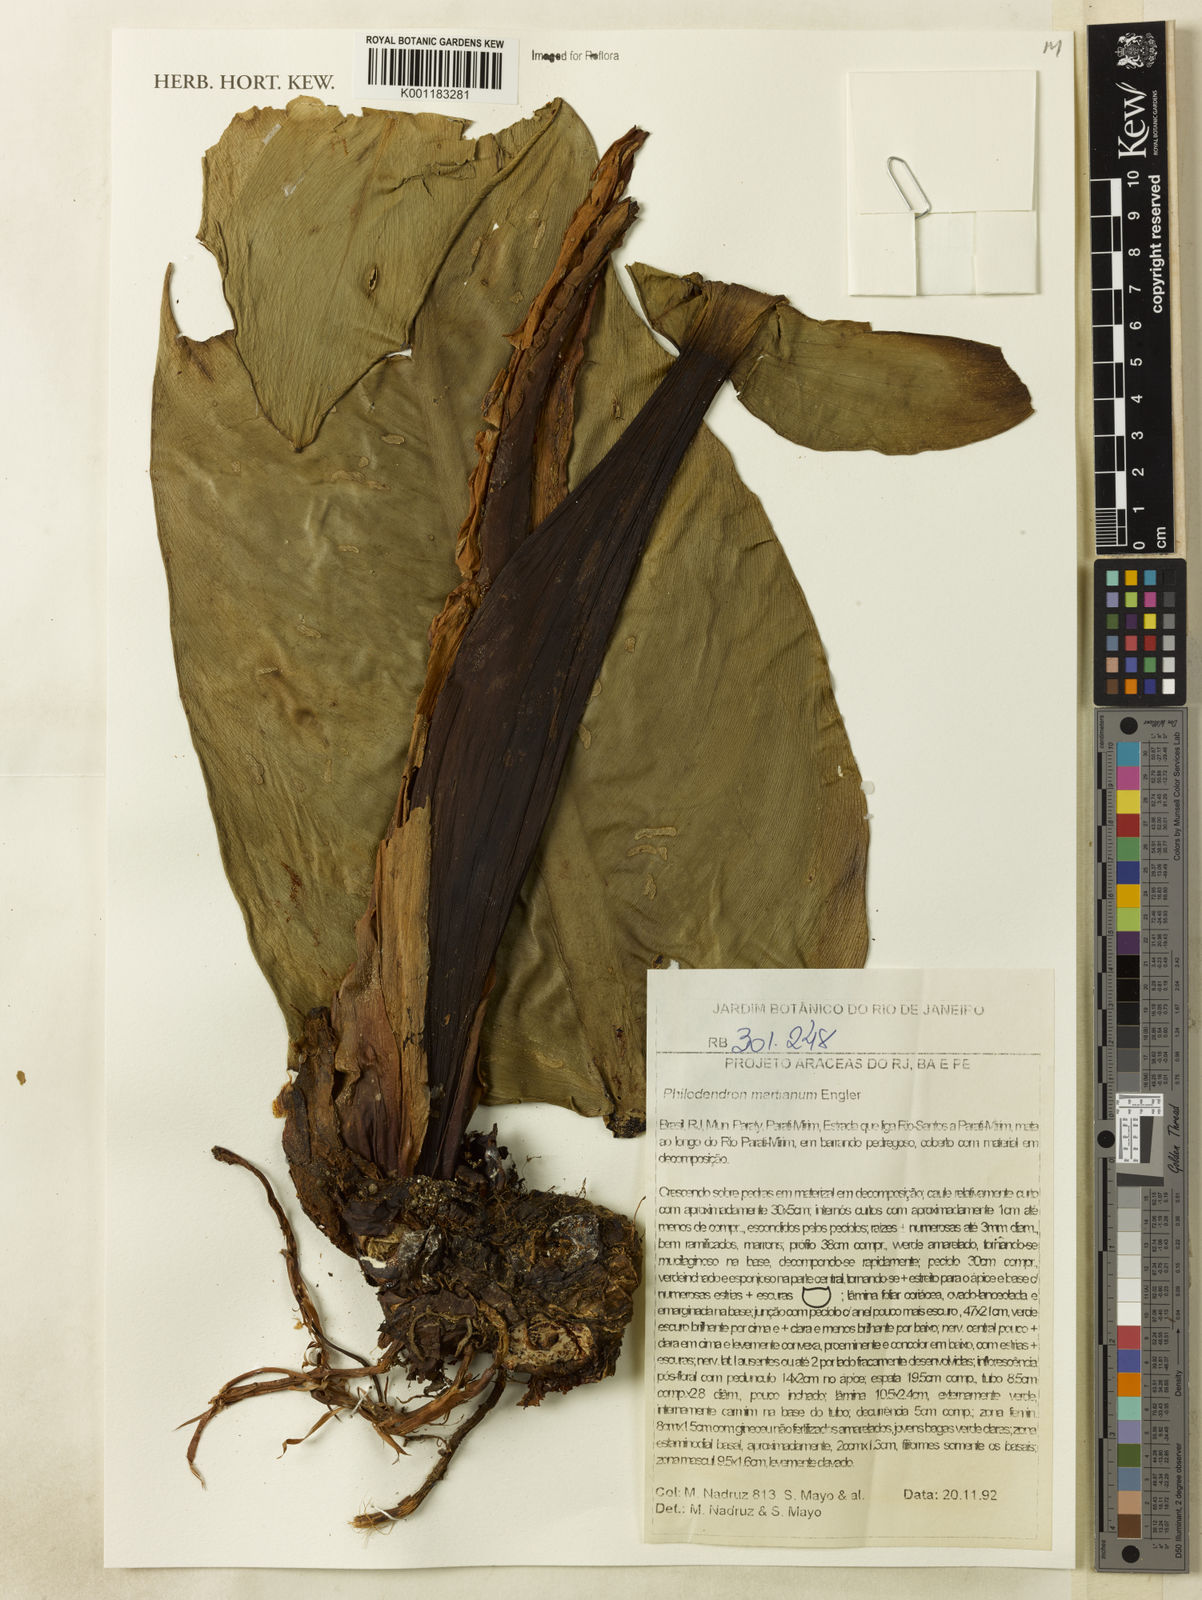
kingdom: Plantae
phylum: Tracheophyta
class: Liliopsida
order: Alismatales
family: Araceae
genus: Philodendron
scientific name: Philodendron martianum
